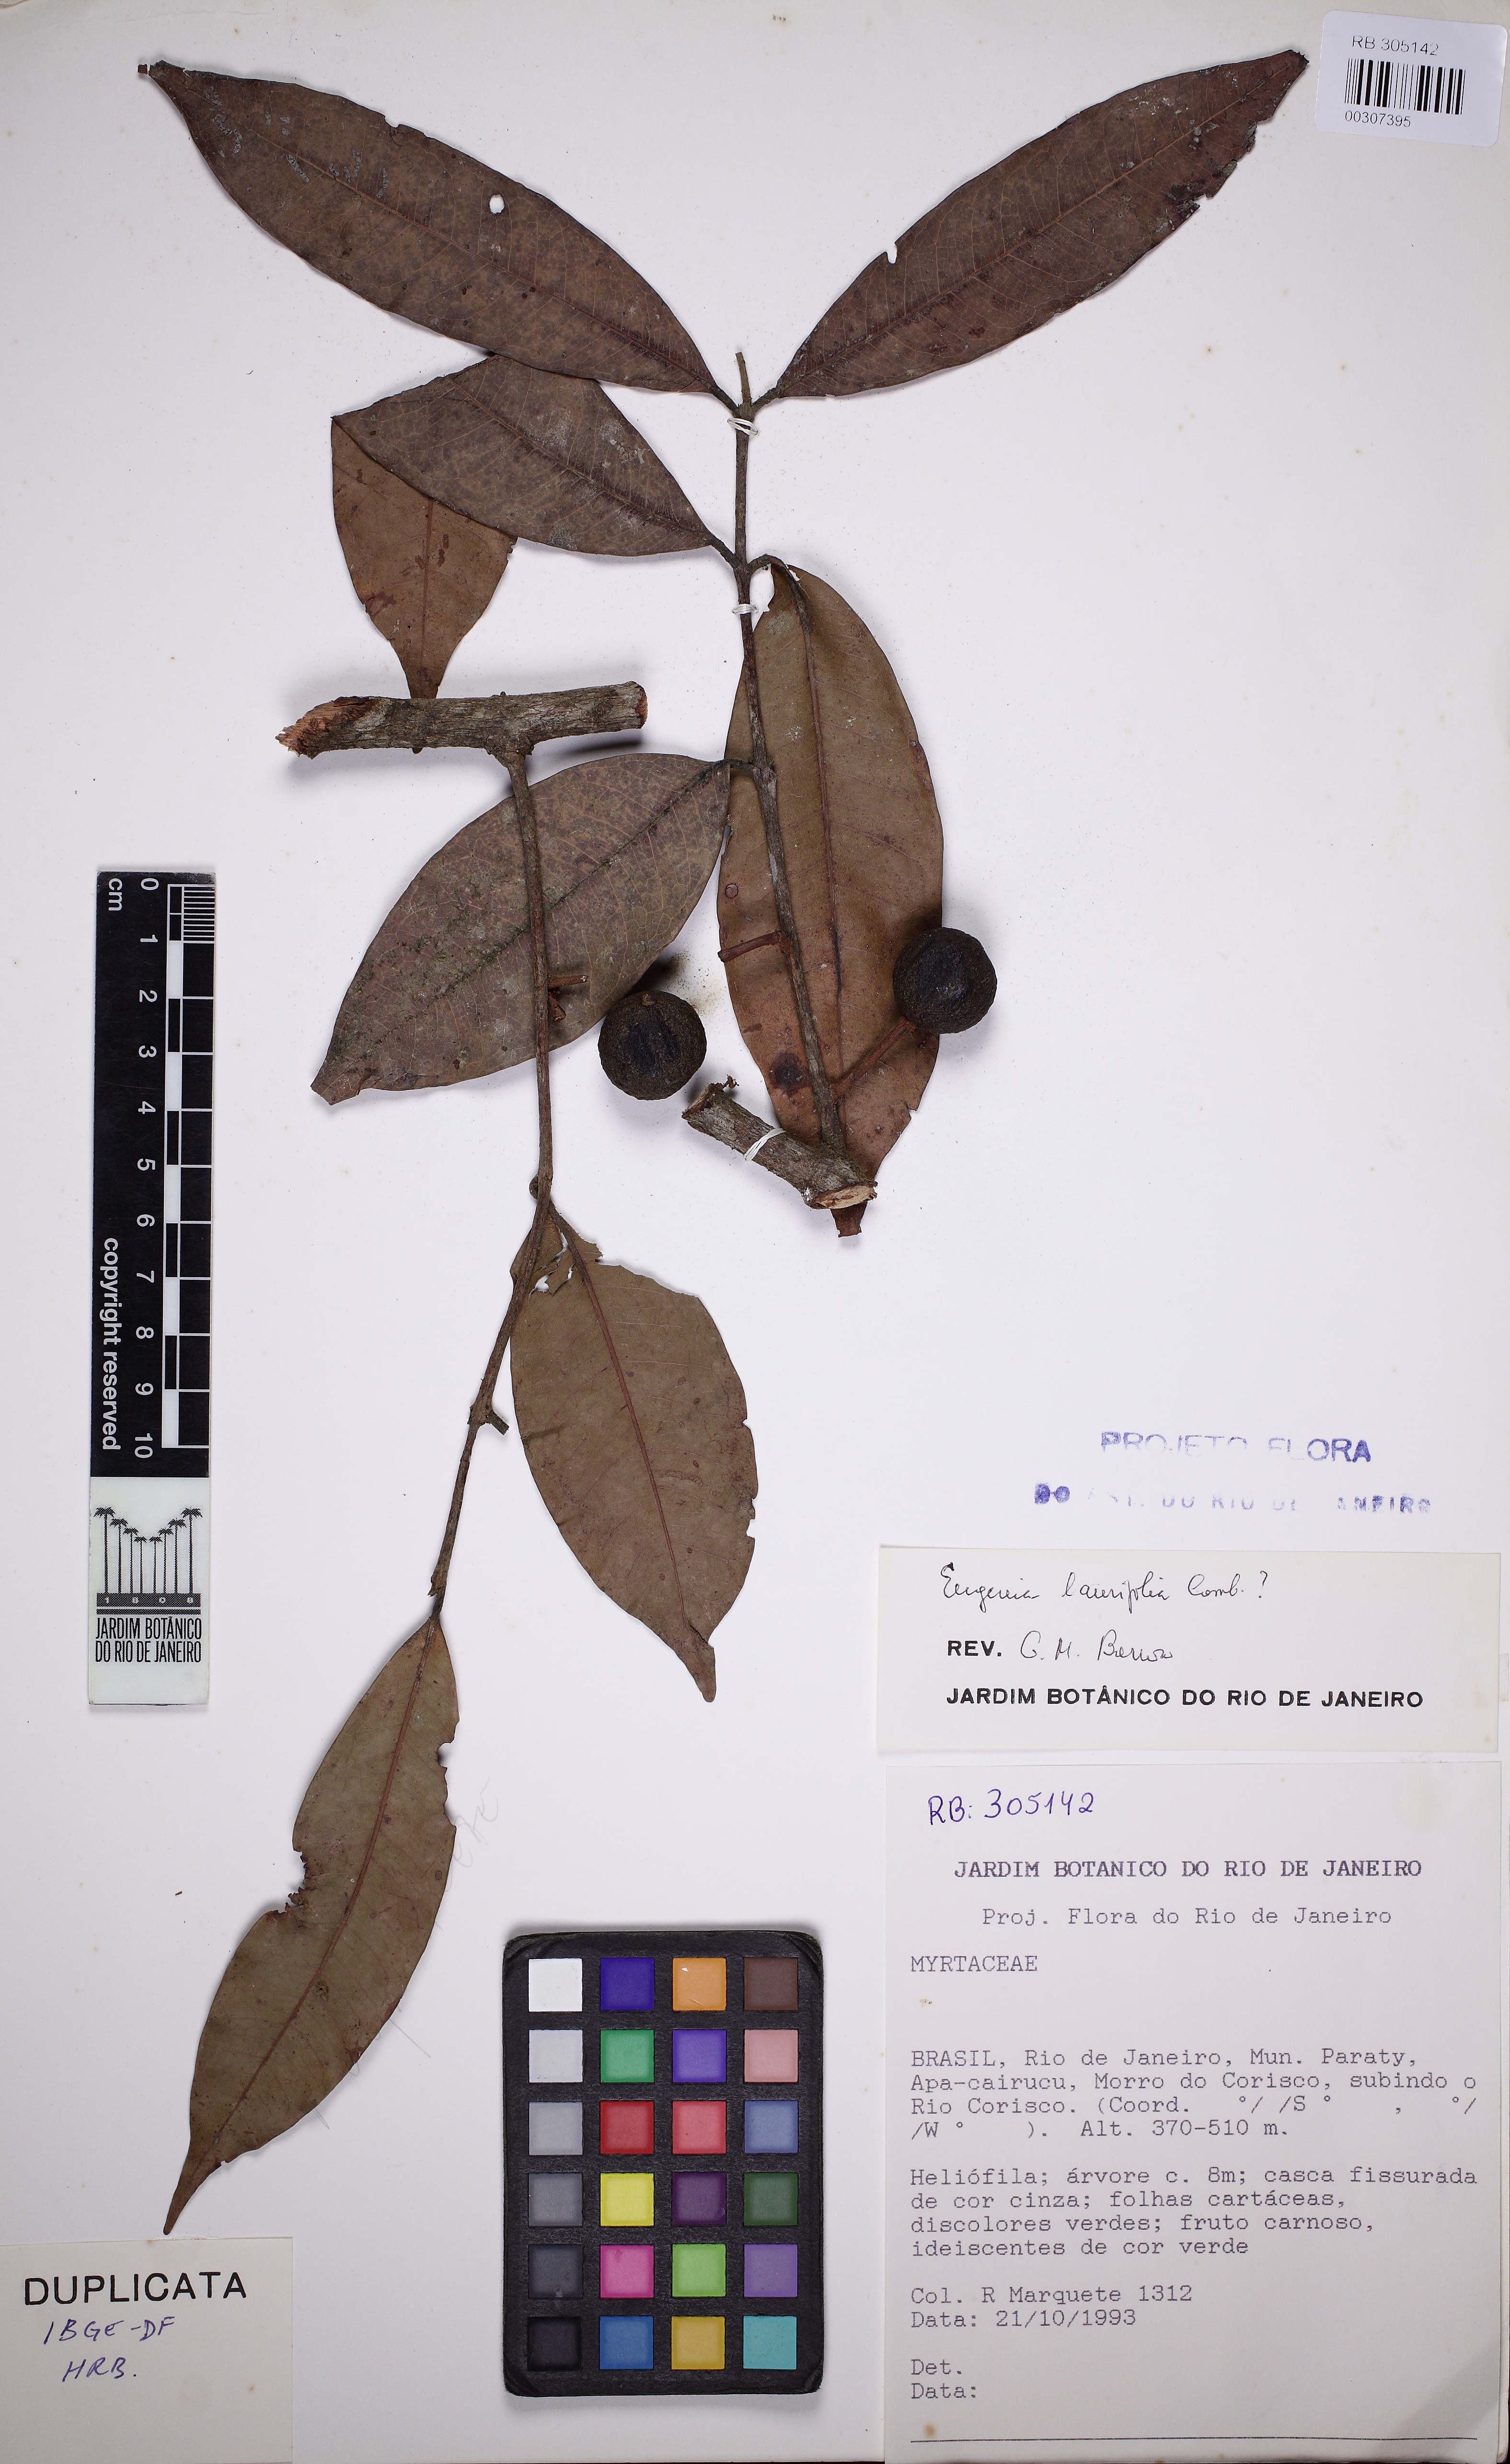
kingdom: Plantae
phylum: Tracheophyta
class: Magnoliopsida
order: Myrtales
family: Myrtaceae
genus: Eugenia
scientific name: Eugenia neolaurifolia
